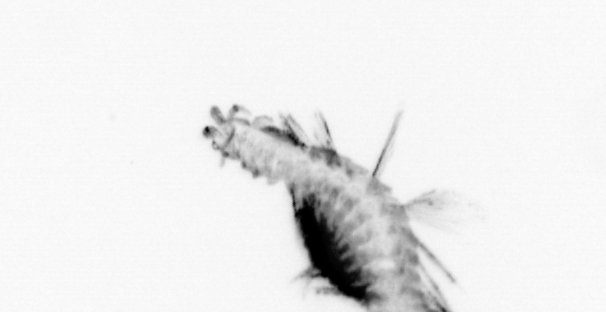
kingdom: Animalia
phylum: Annelida
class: Polychaeta
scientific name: Polychaeta
